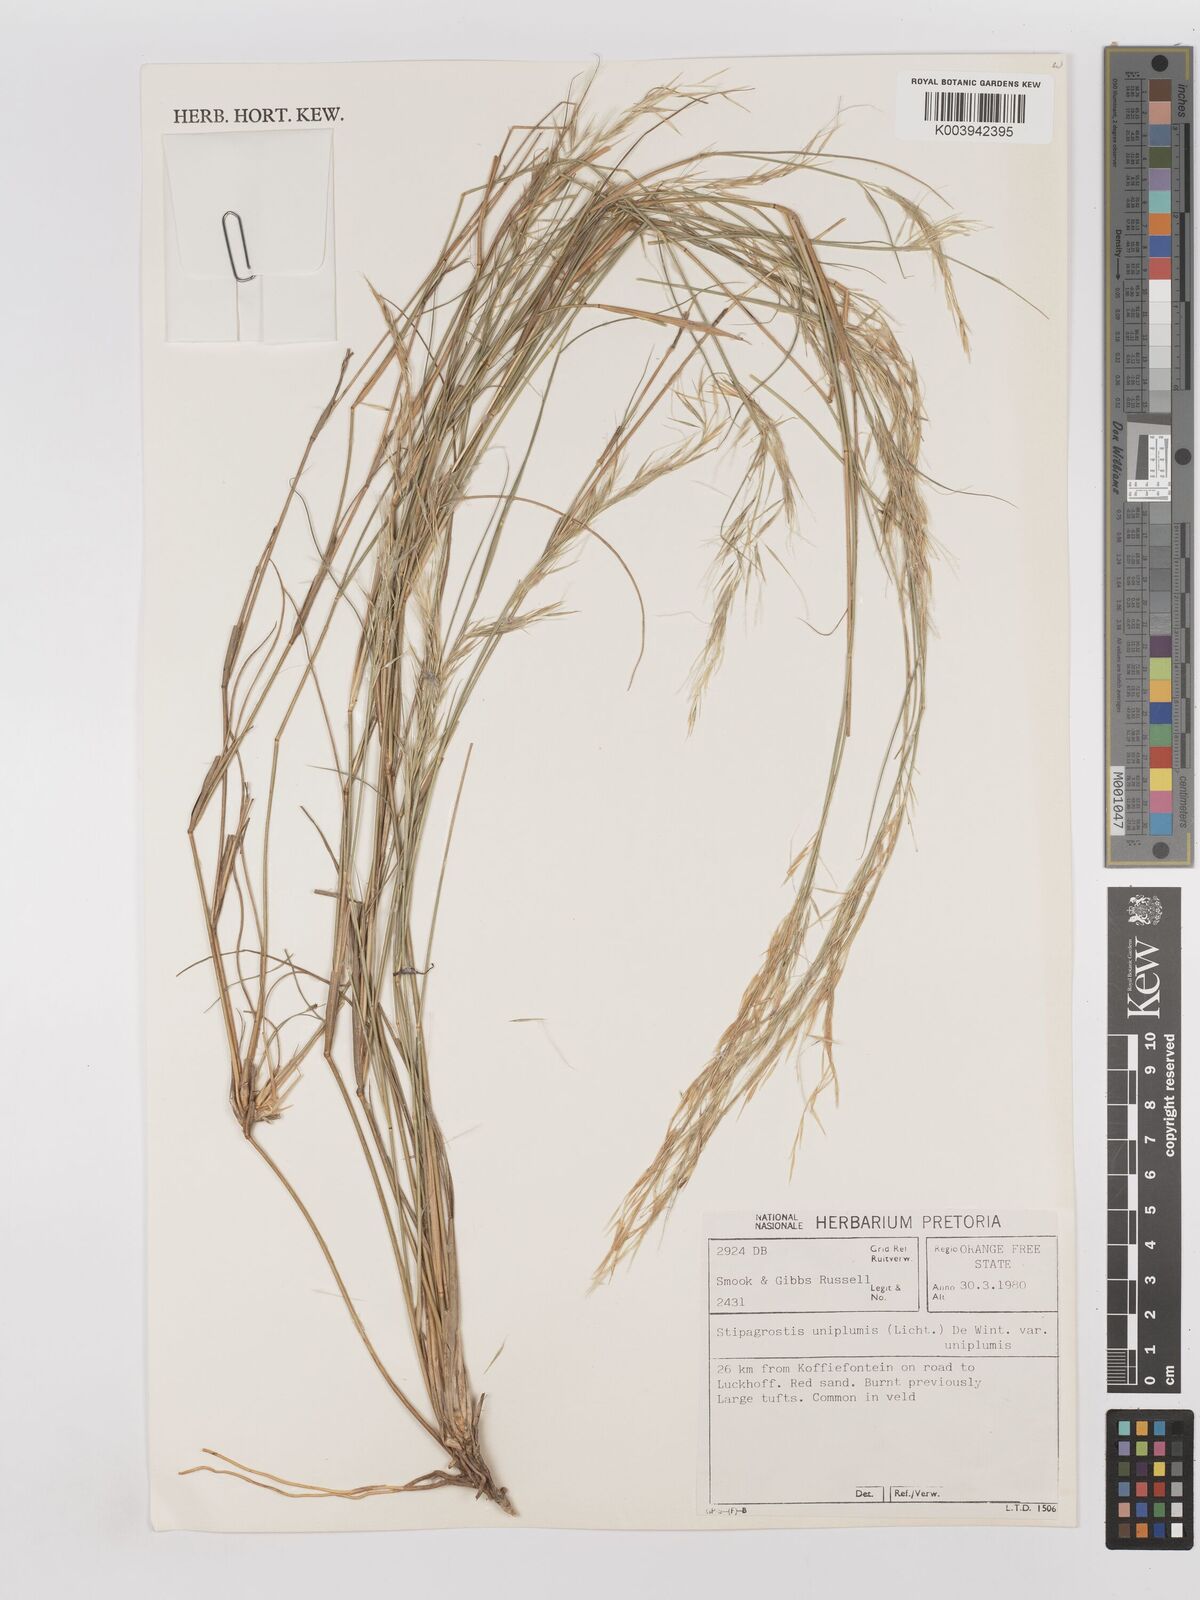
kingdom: Plantae
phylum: Tracheophyta
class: Liliopsida
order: Poales
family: Poaceae
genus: Stipagrostis
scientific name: Stipagrostis uniplumis
